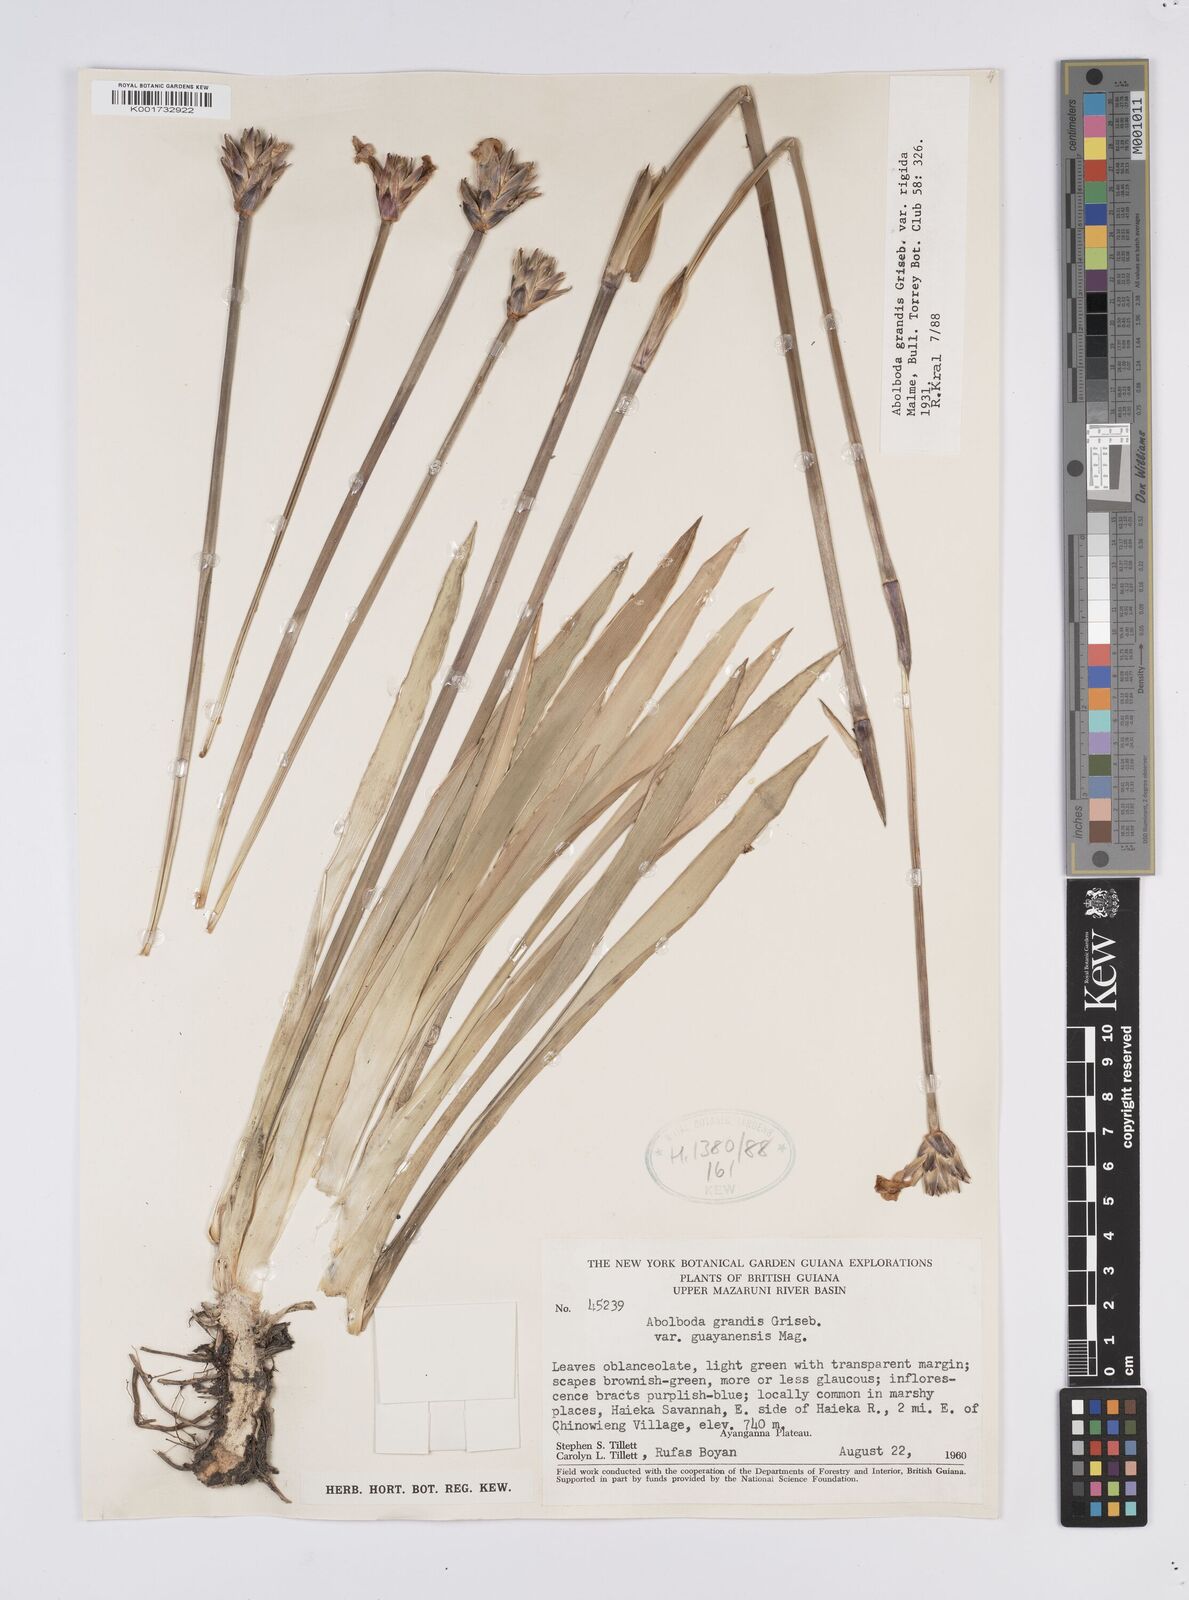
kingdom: Plantae
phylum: Tracheophyta
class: Liliopsida
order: Poales
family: Xyridaceae
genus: Abolboda
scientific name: Abolboda grandis
